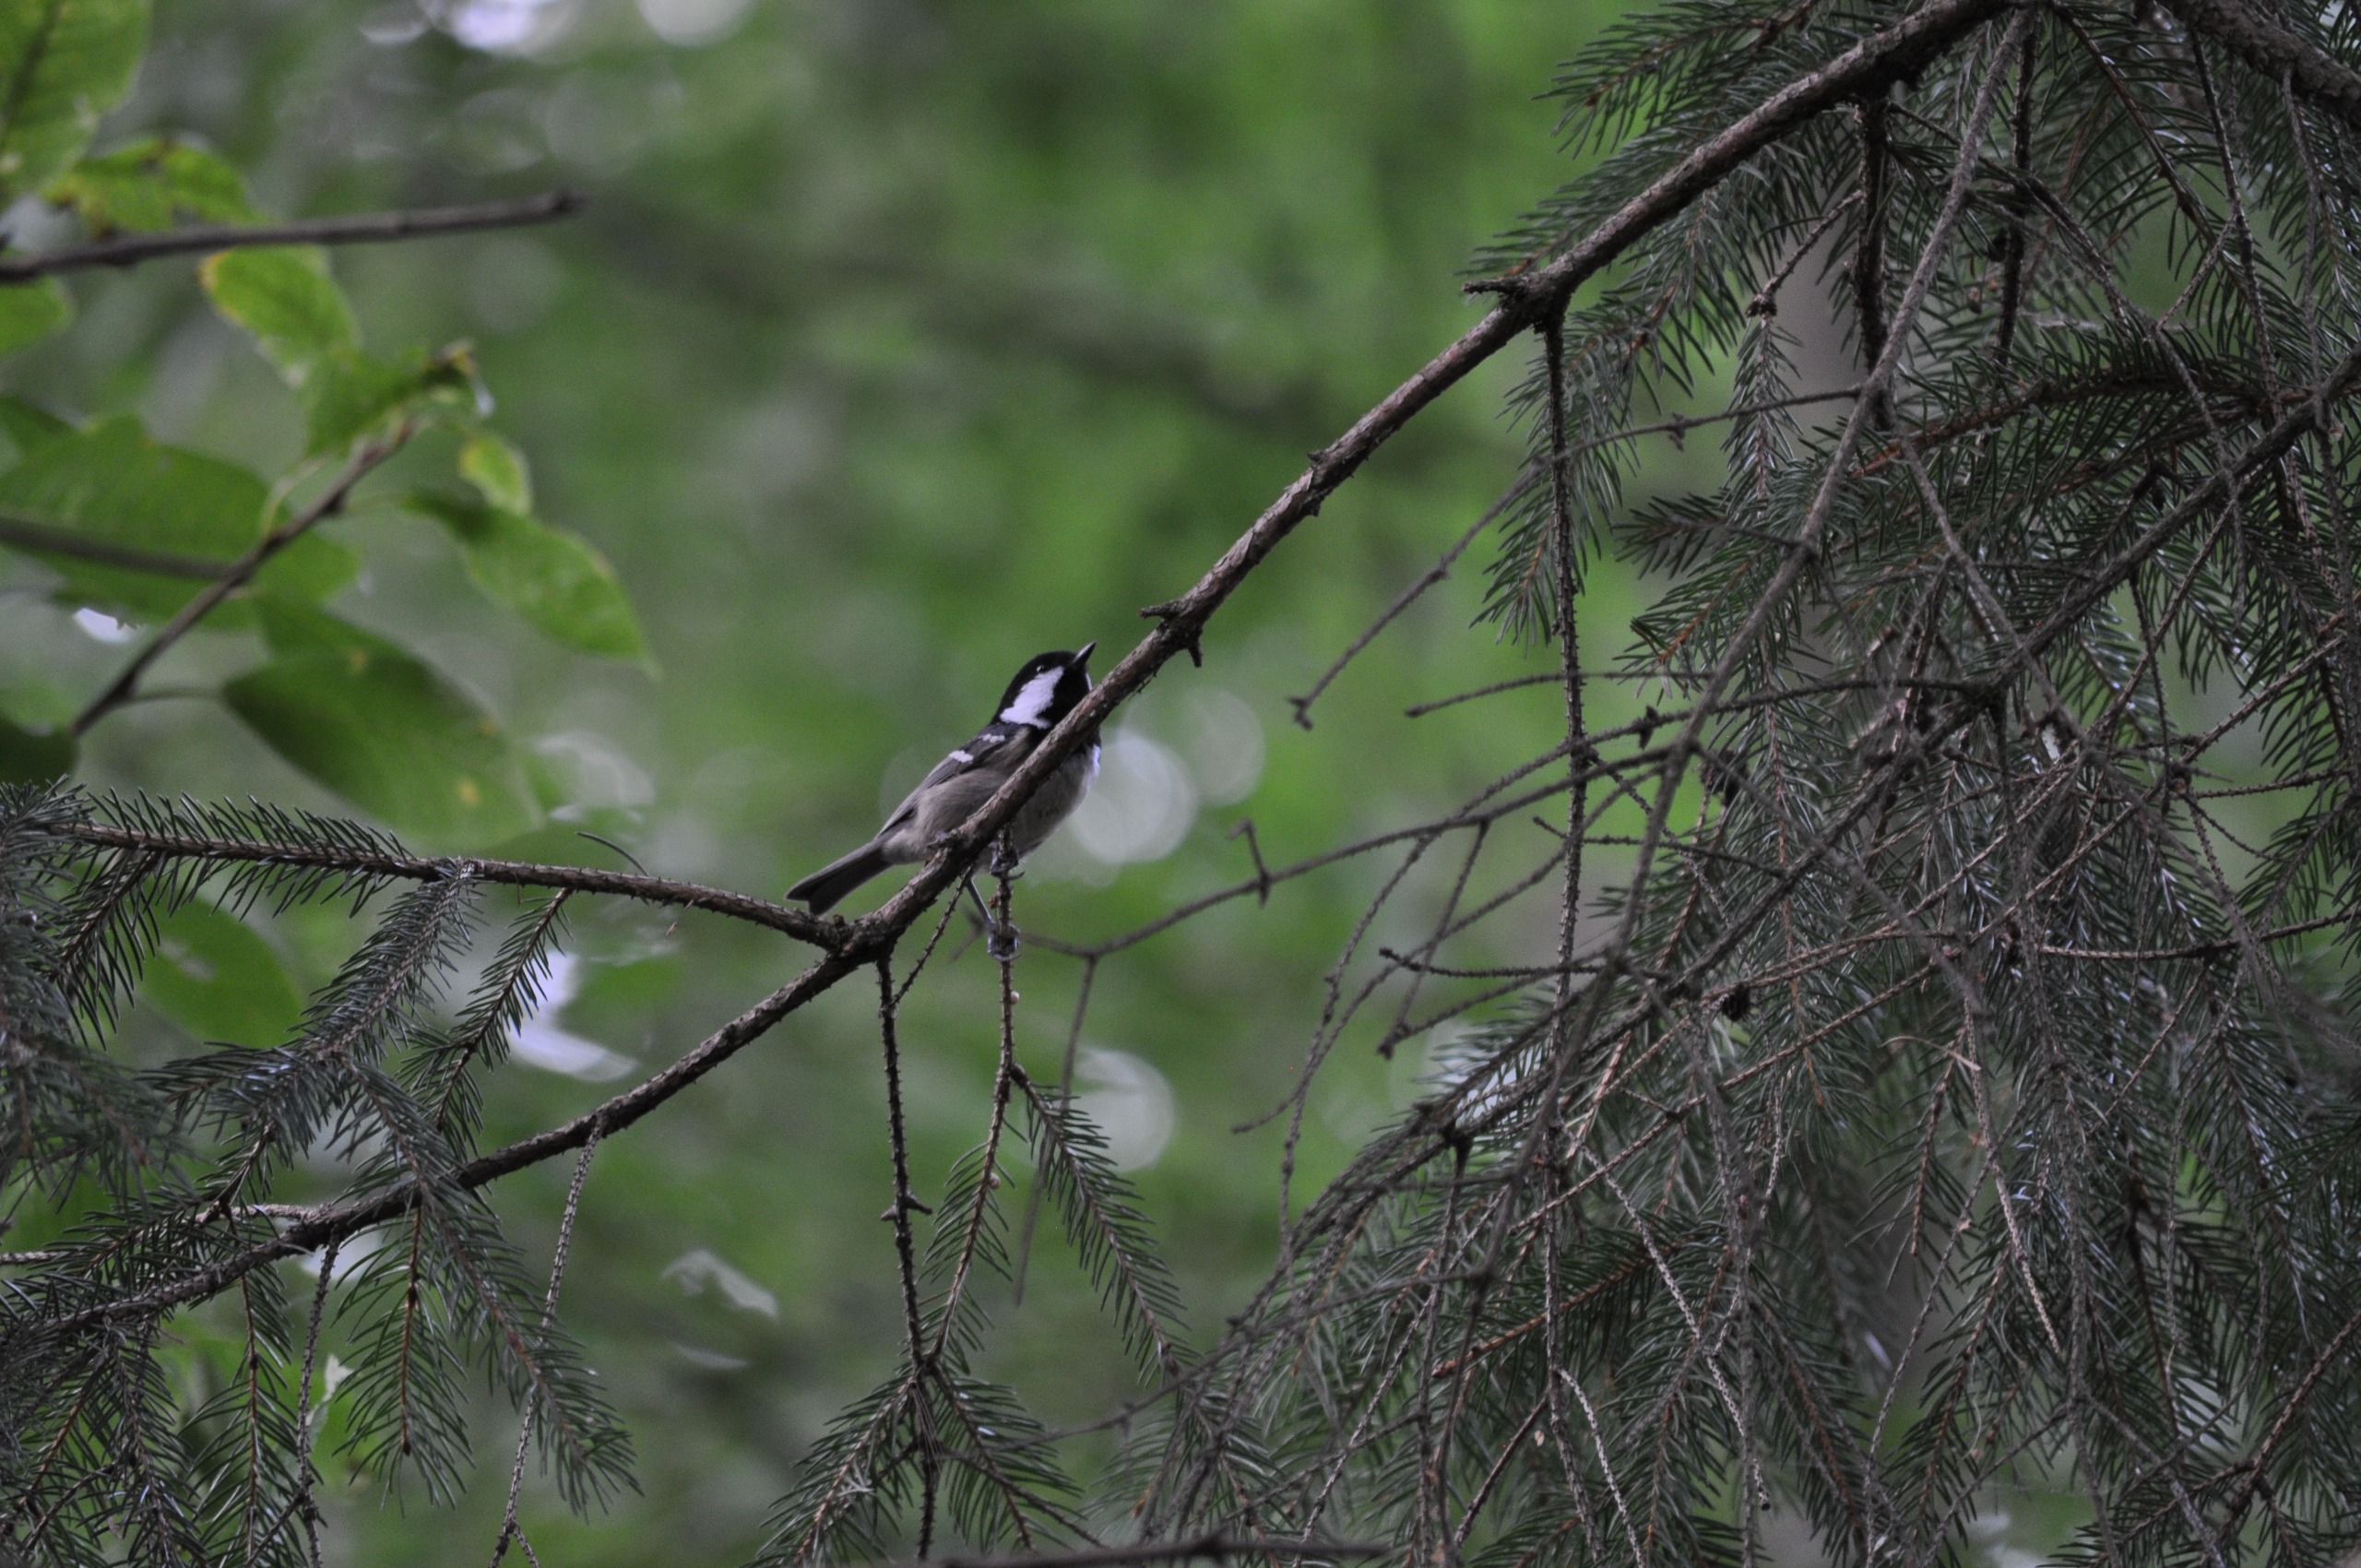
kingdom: Animalia
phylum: Chordata
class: Aves
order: Passeriformes
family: Paridae
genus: Periparus
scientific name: Periparus ater
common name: Sortmejse
